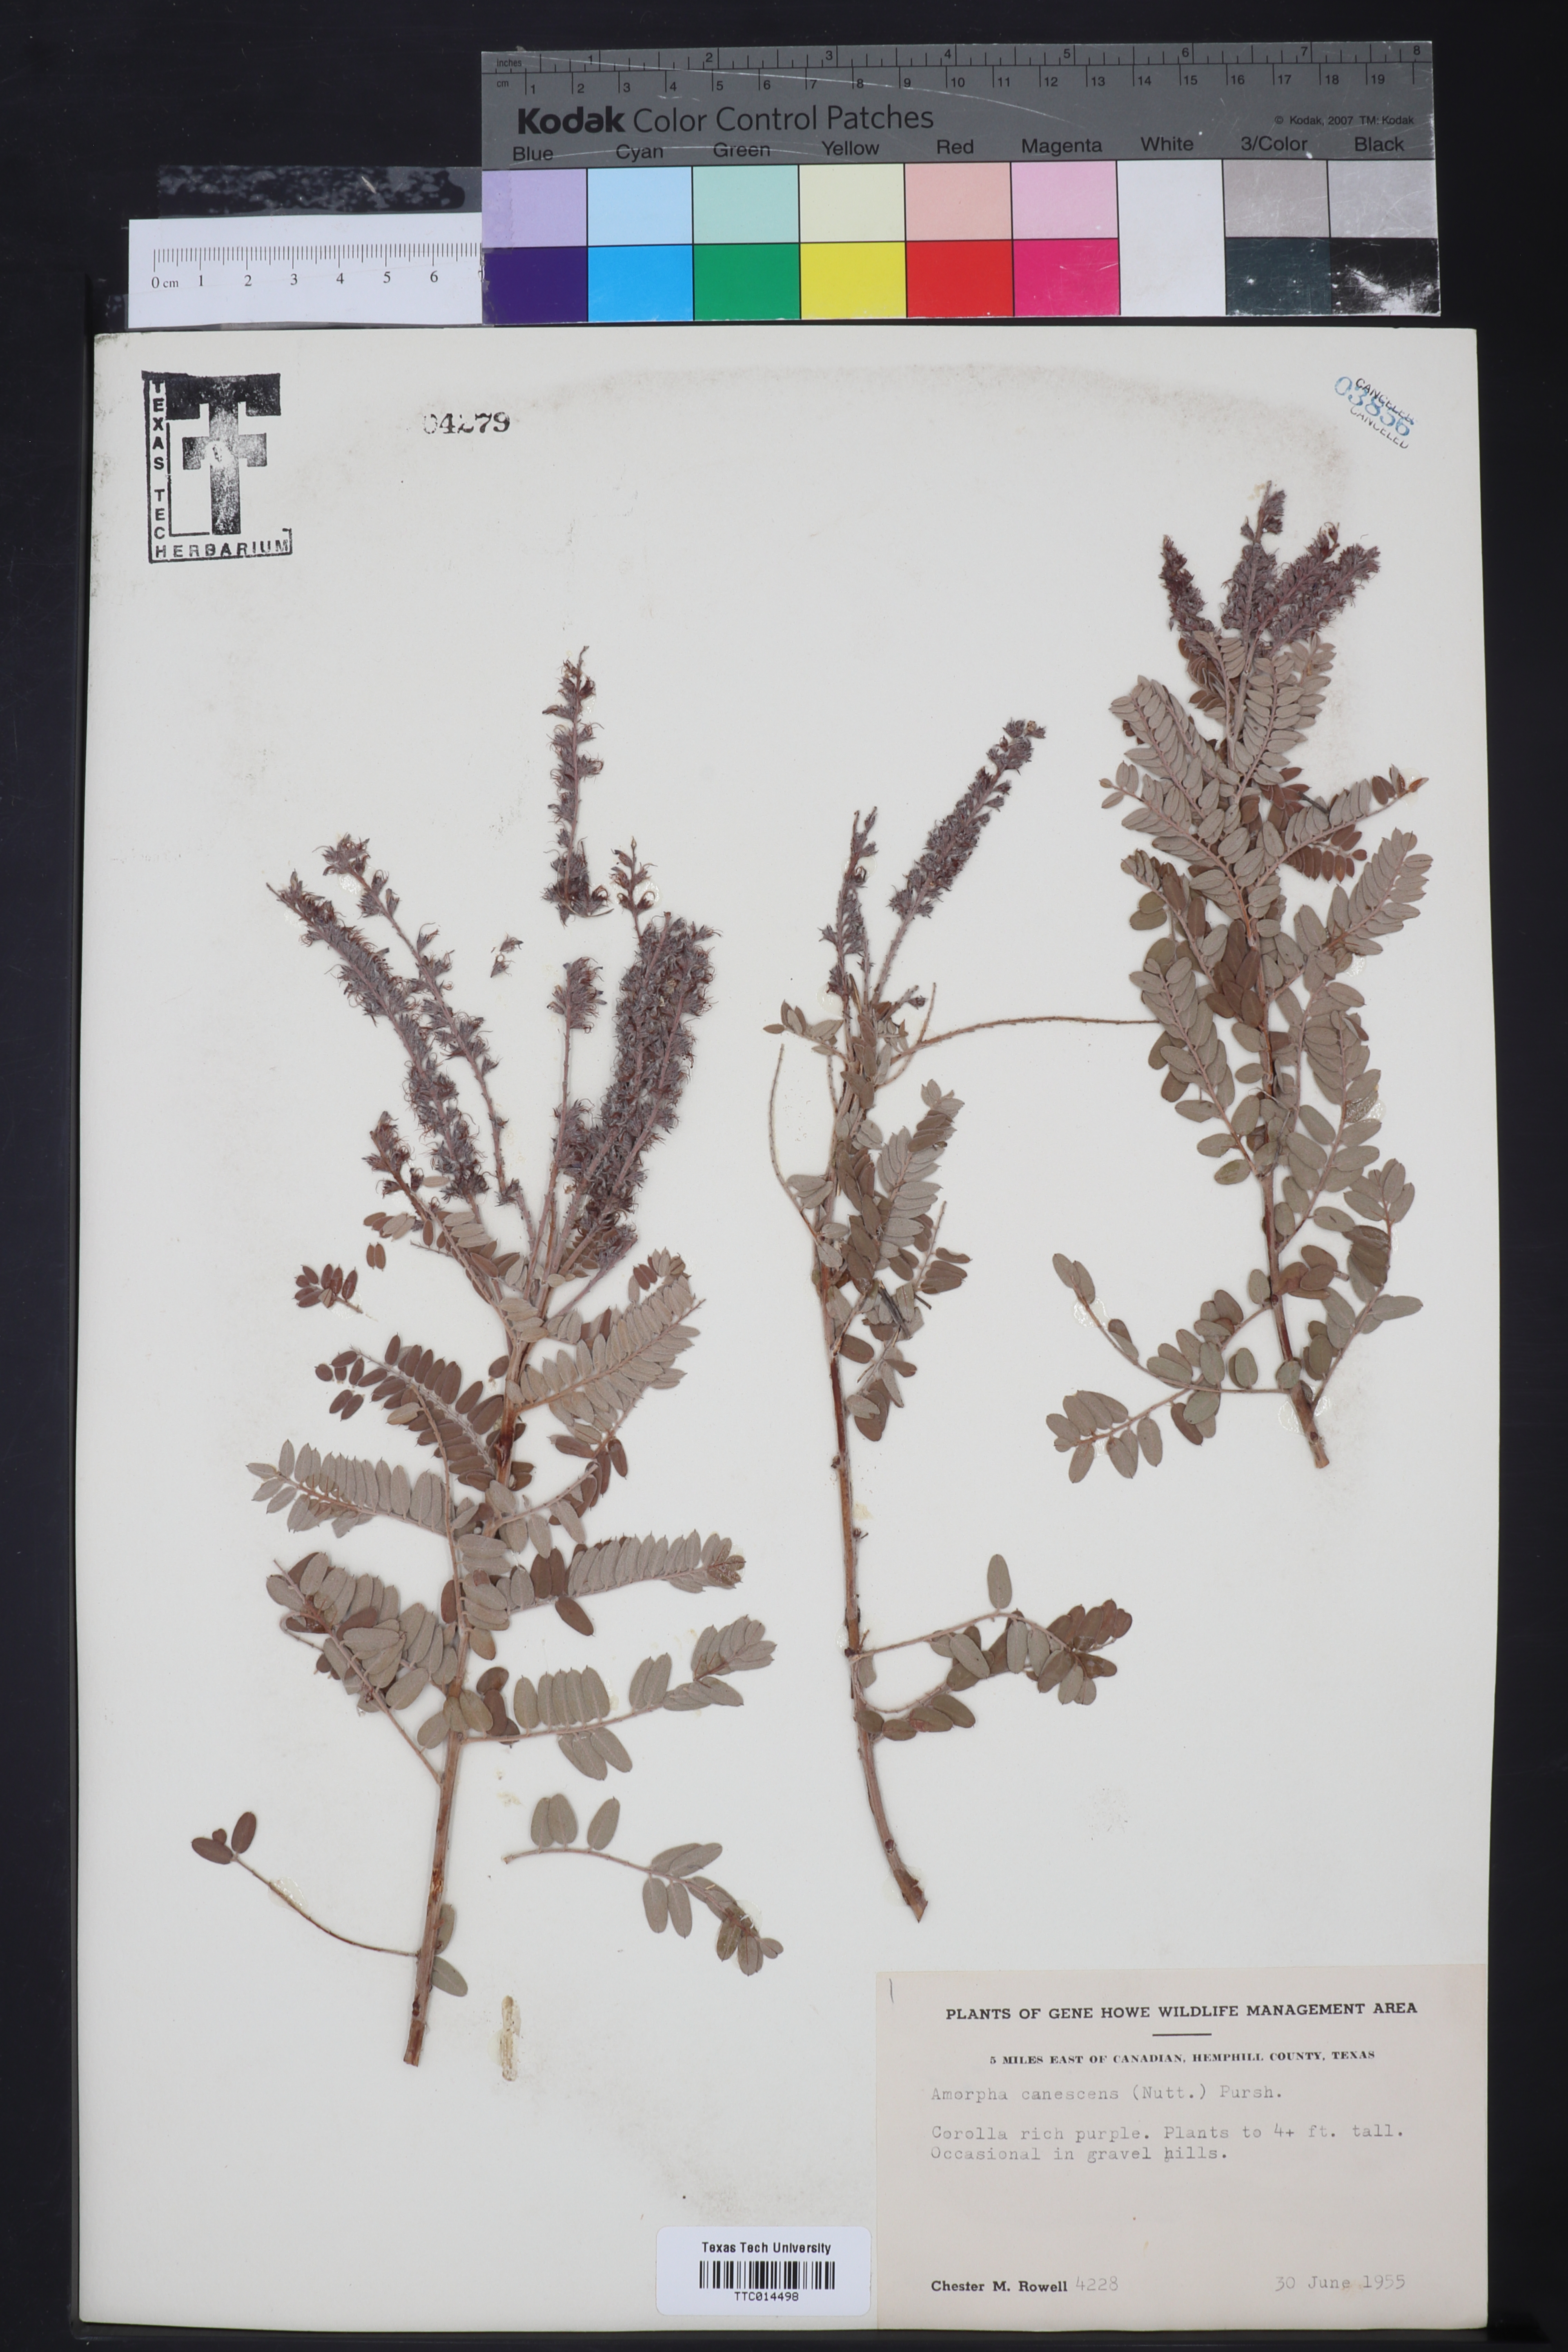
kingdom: Plantae
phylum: Tracheophyta
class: Magnoliopsida
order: Fabales
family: Fabaceae
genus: Amorpha
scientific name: Amorpha canescens
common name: Leadplant
